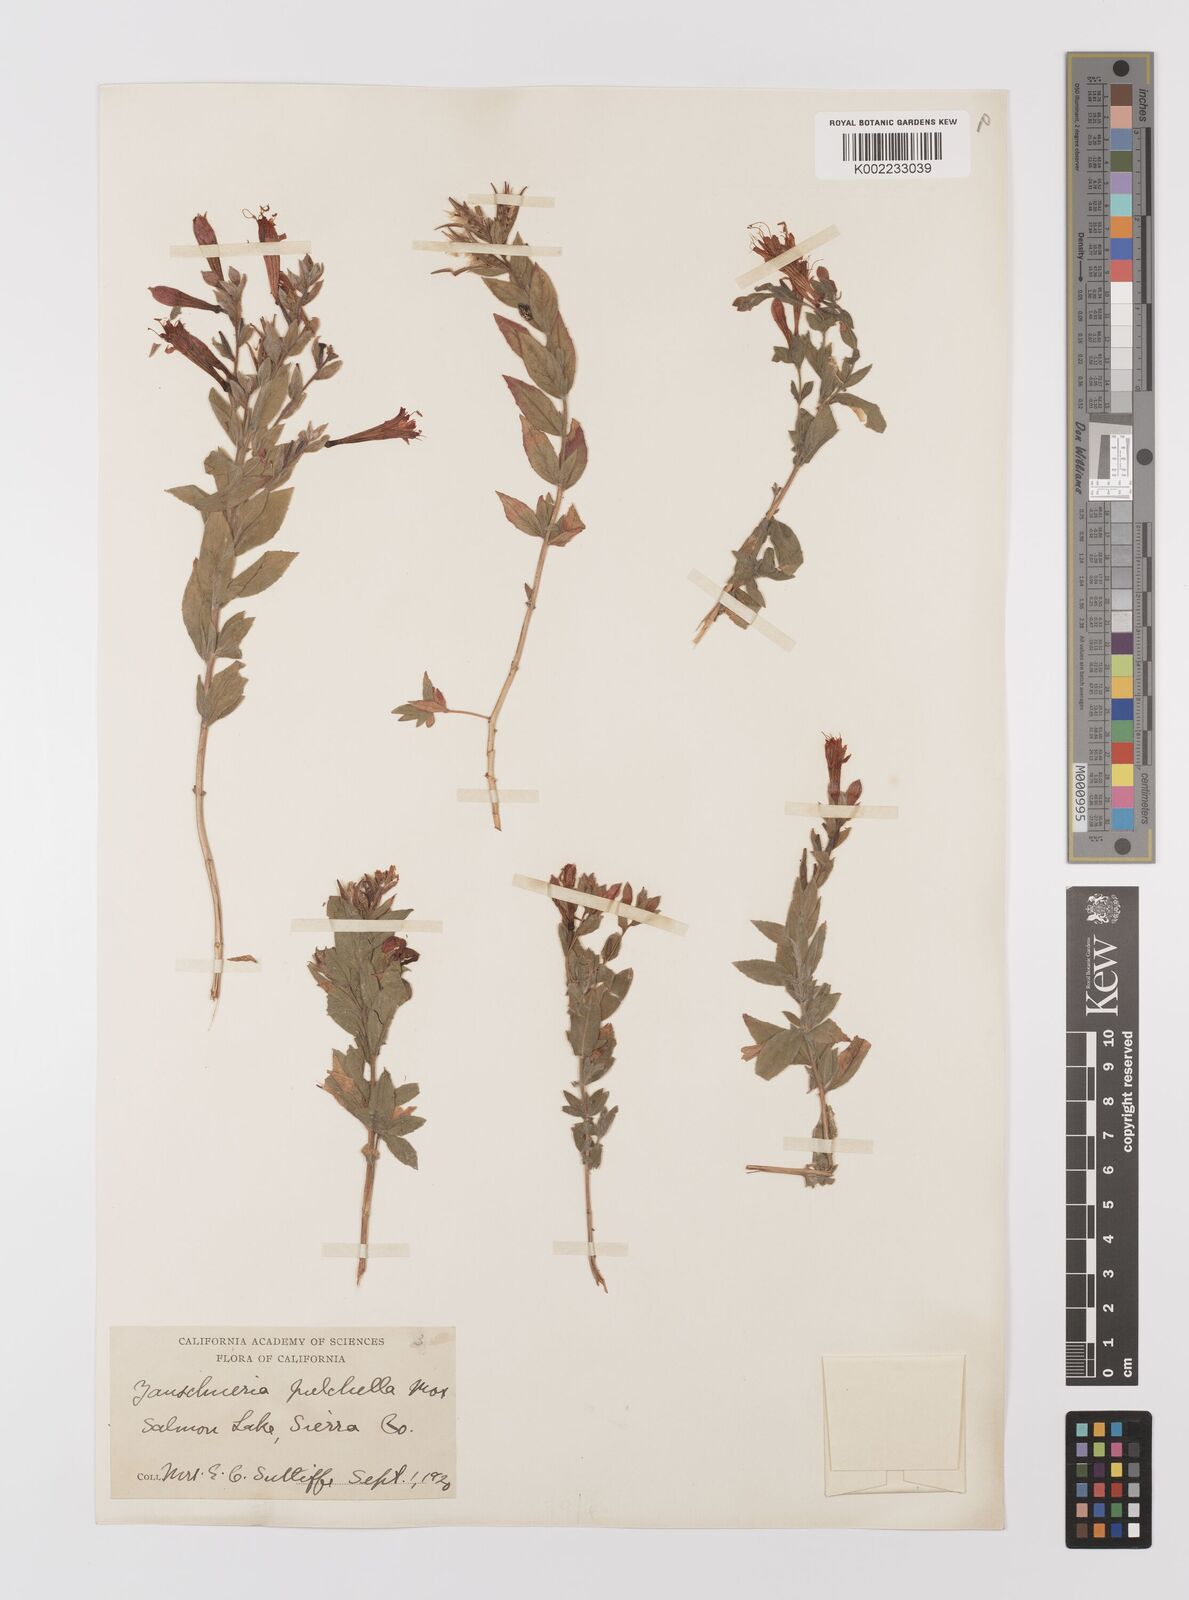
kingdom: Plantae
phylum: Tracheophyta
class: Magnoliopsida
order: Myrtales
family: Onagraceae
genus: Epilobium
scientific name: Epilobium
